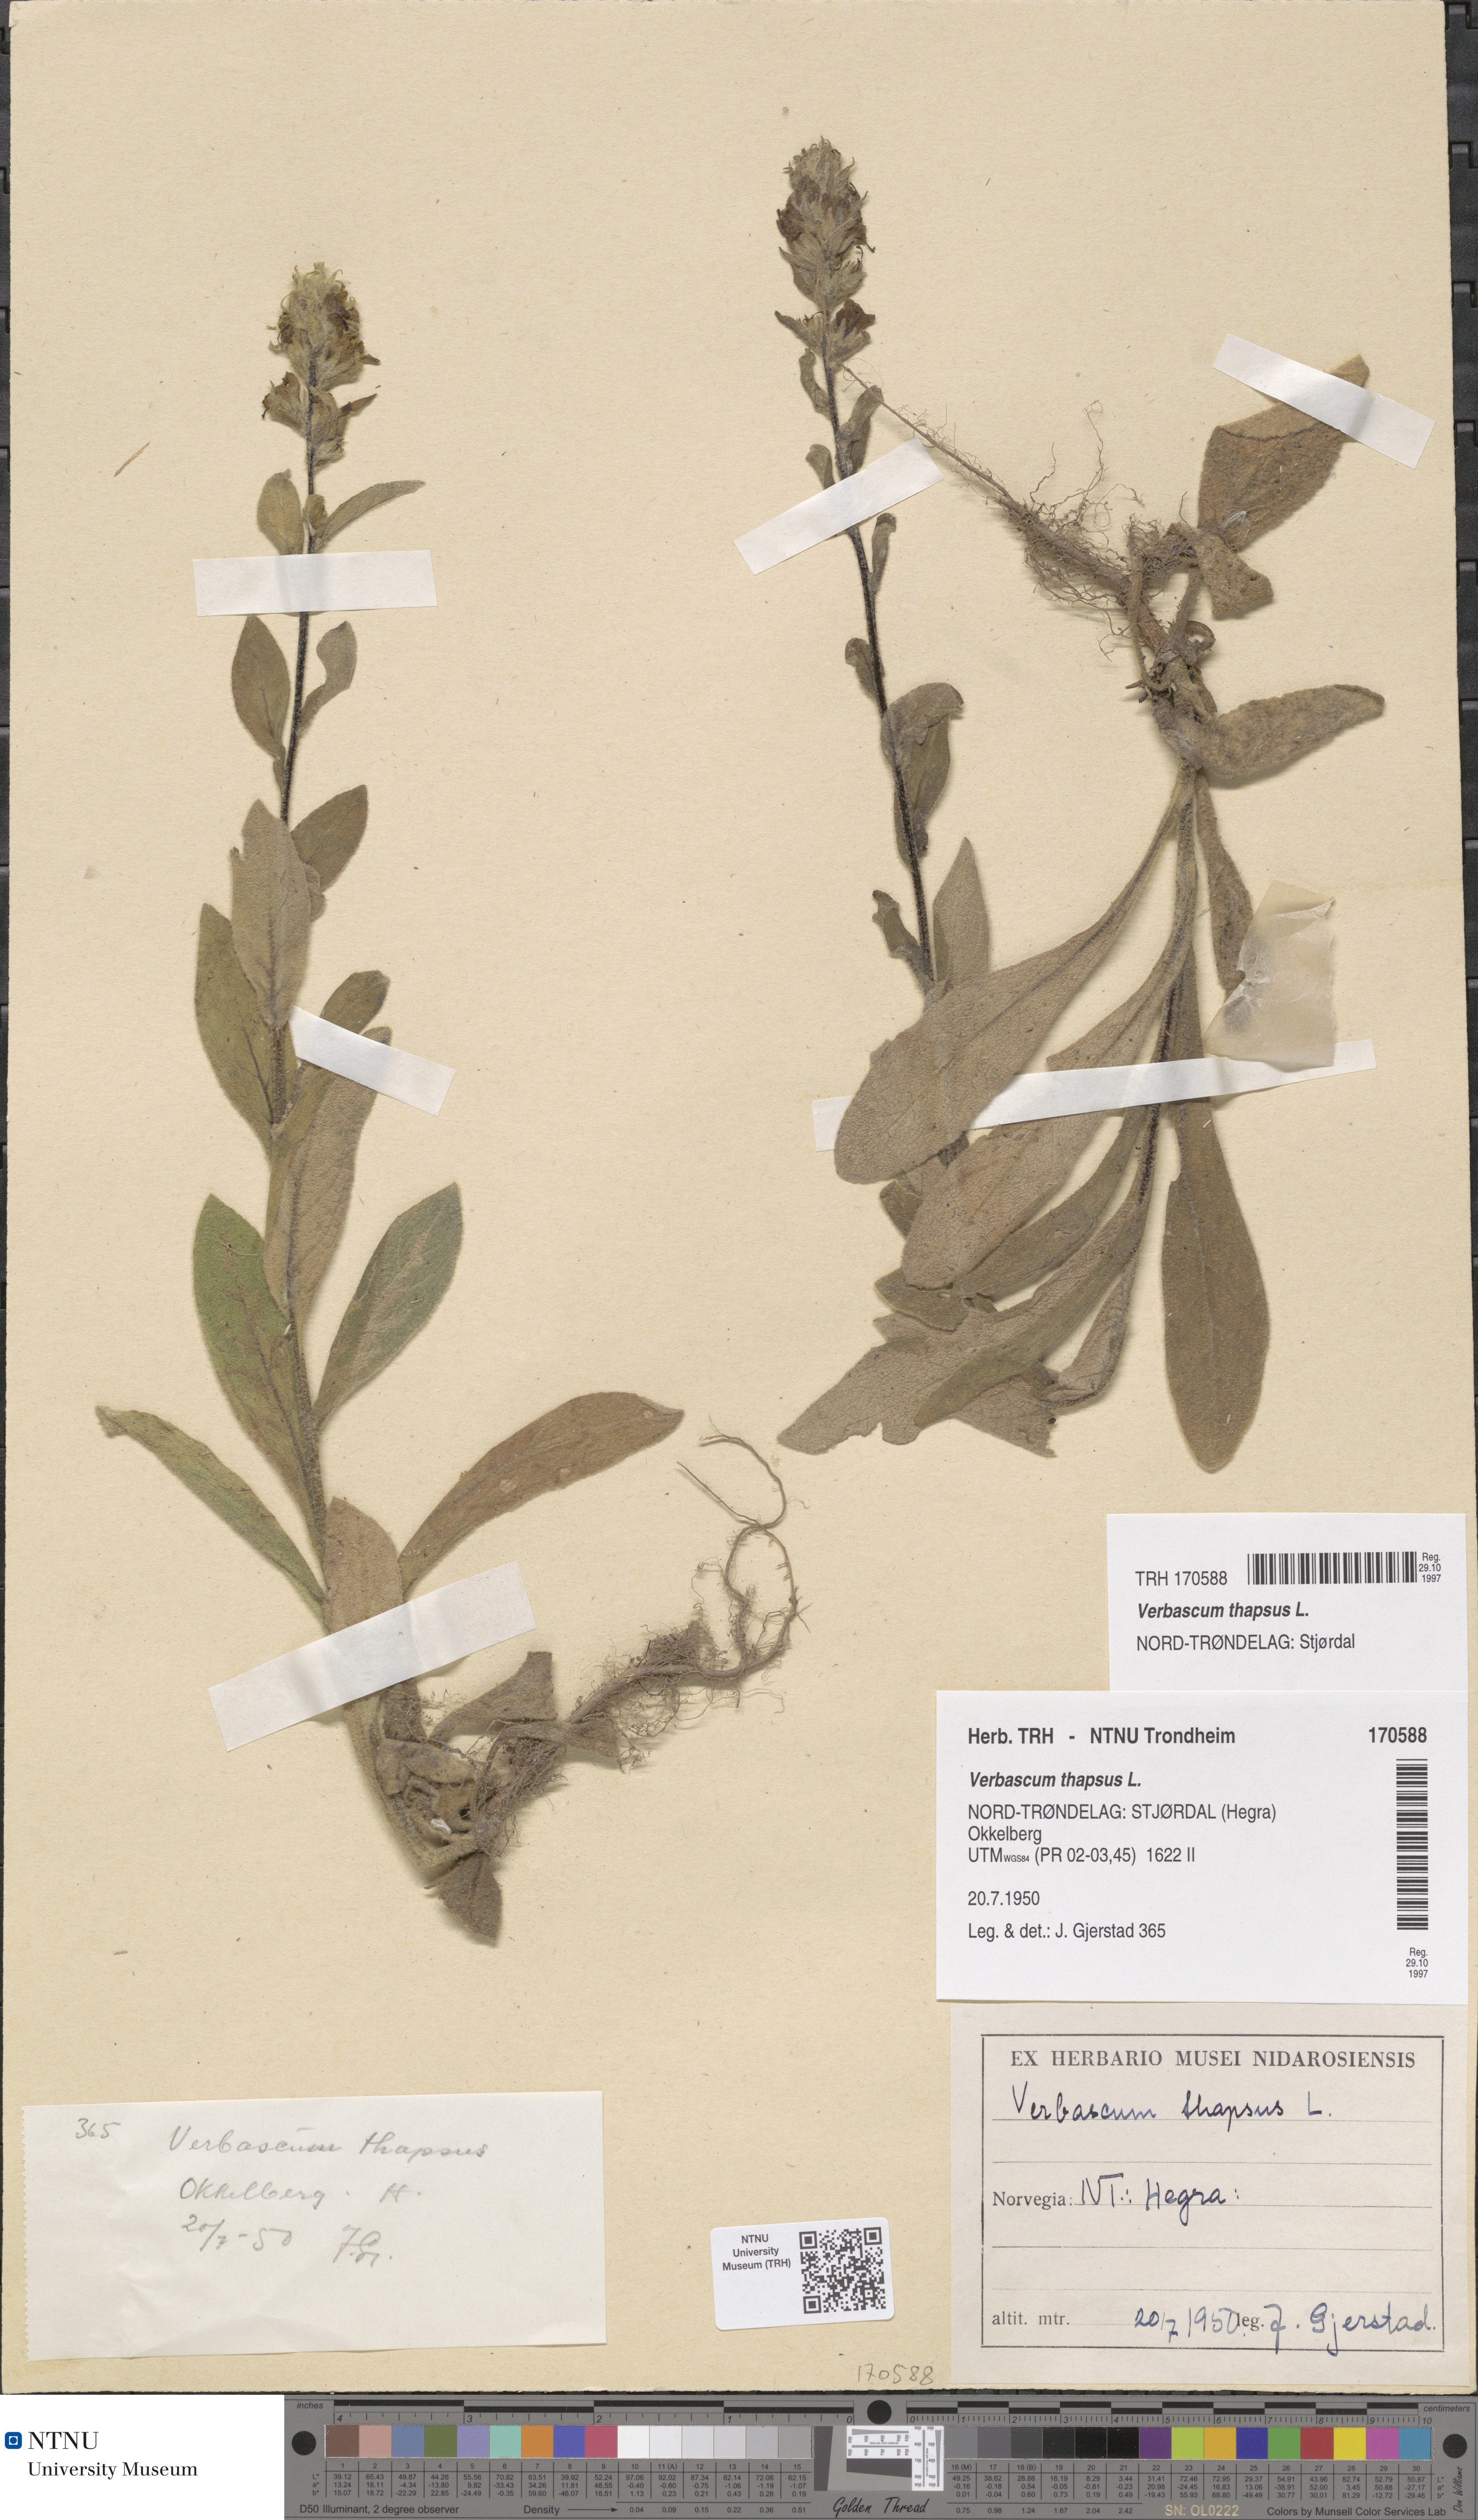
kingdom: Plantae
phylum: Tracheophyta
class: Magnoliopsida
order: Lamiales
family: Scrophulariaceae
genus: Verbascum
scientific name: Verbascum thapsus
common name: Common mullein
